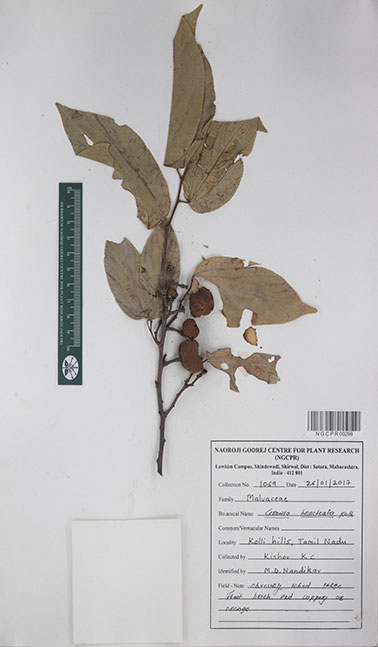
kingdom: Plantae
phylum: Tracheophyta
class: Magnoliopsida
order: Malvales
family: Malvaceae
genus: Grewia
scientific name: Grewia bracteata
